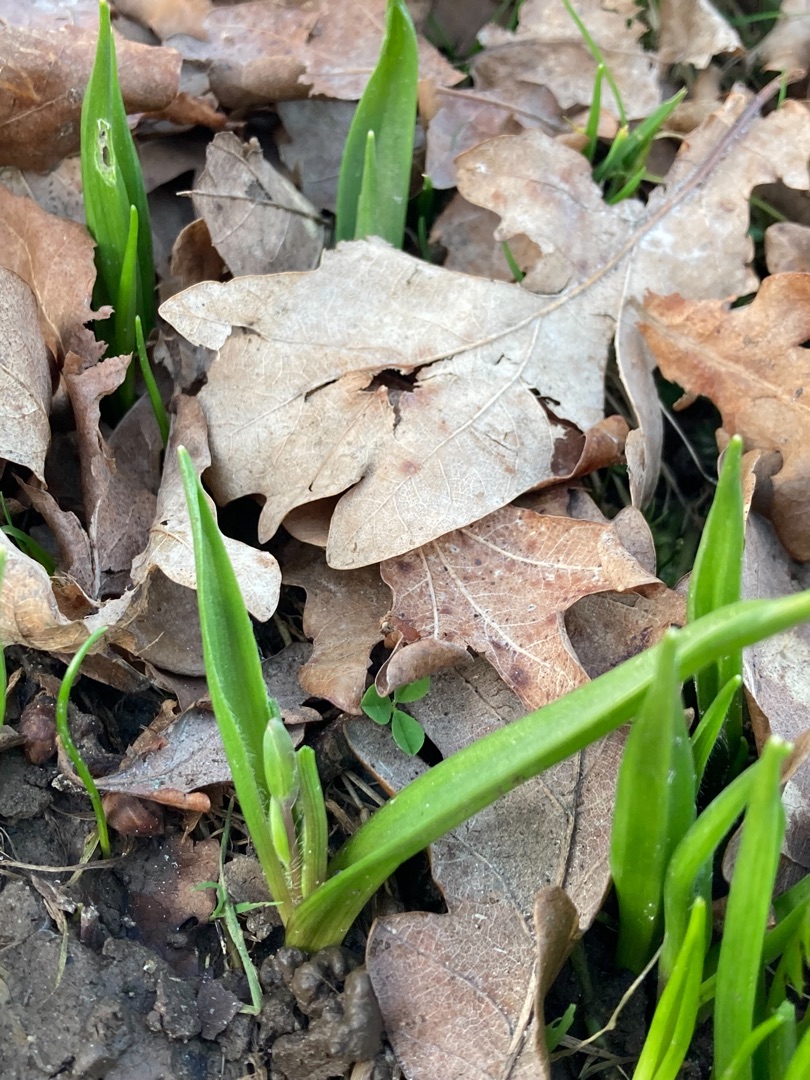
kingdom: Plantae
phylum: Tracheophyta
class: Liliopsida
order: Liliales
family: Liliaceae
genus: Gagea
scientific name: Gagea lutea
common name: Almindelig guldstjerne
